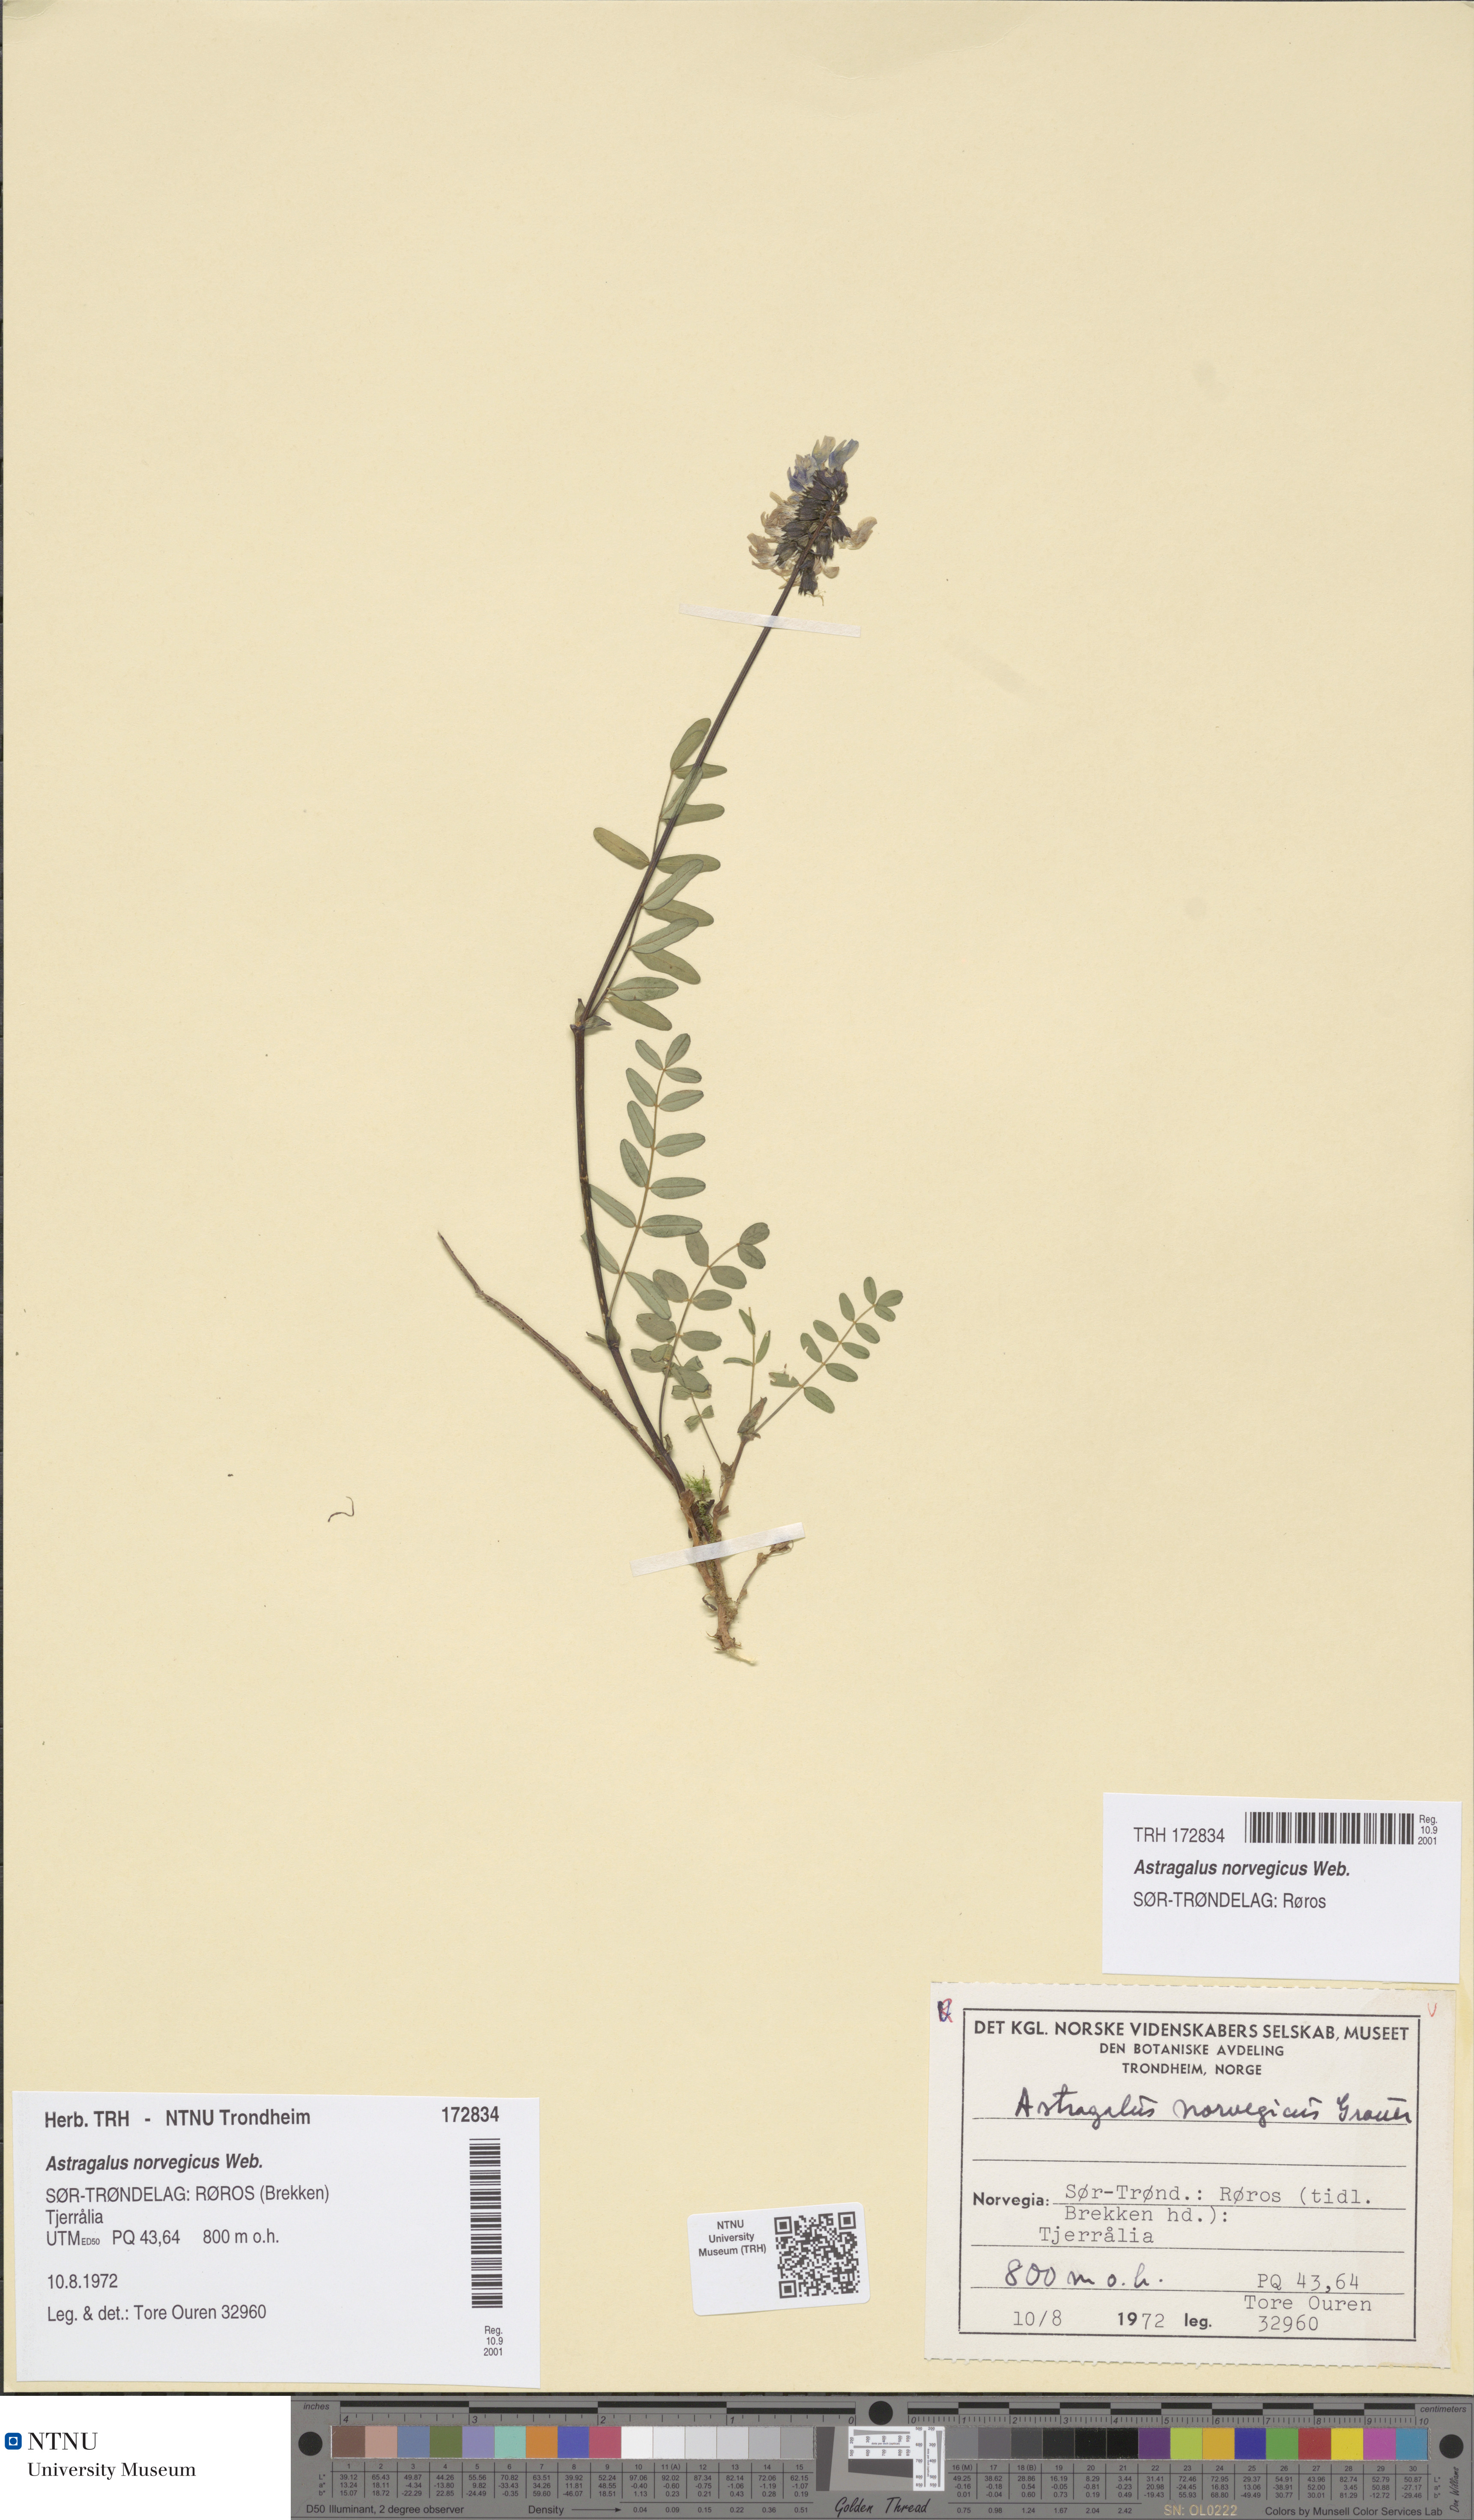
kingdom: Plantae
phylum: Tracheophyta
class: Magnoliopsida
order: Fabales
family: Fabaceae
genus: Astragalus
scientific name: Astragalus norvegicus
